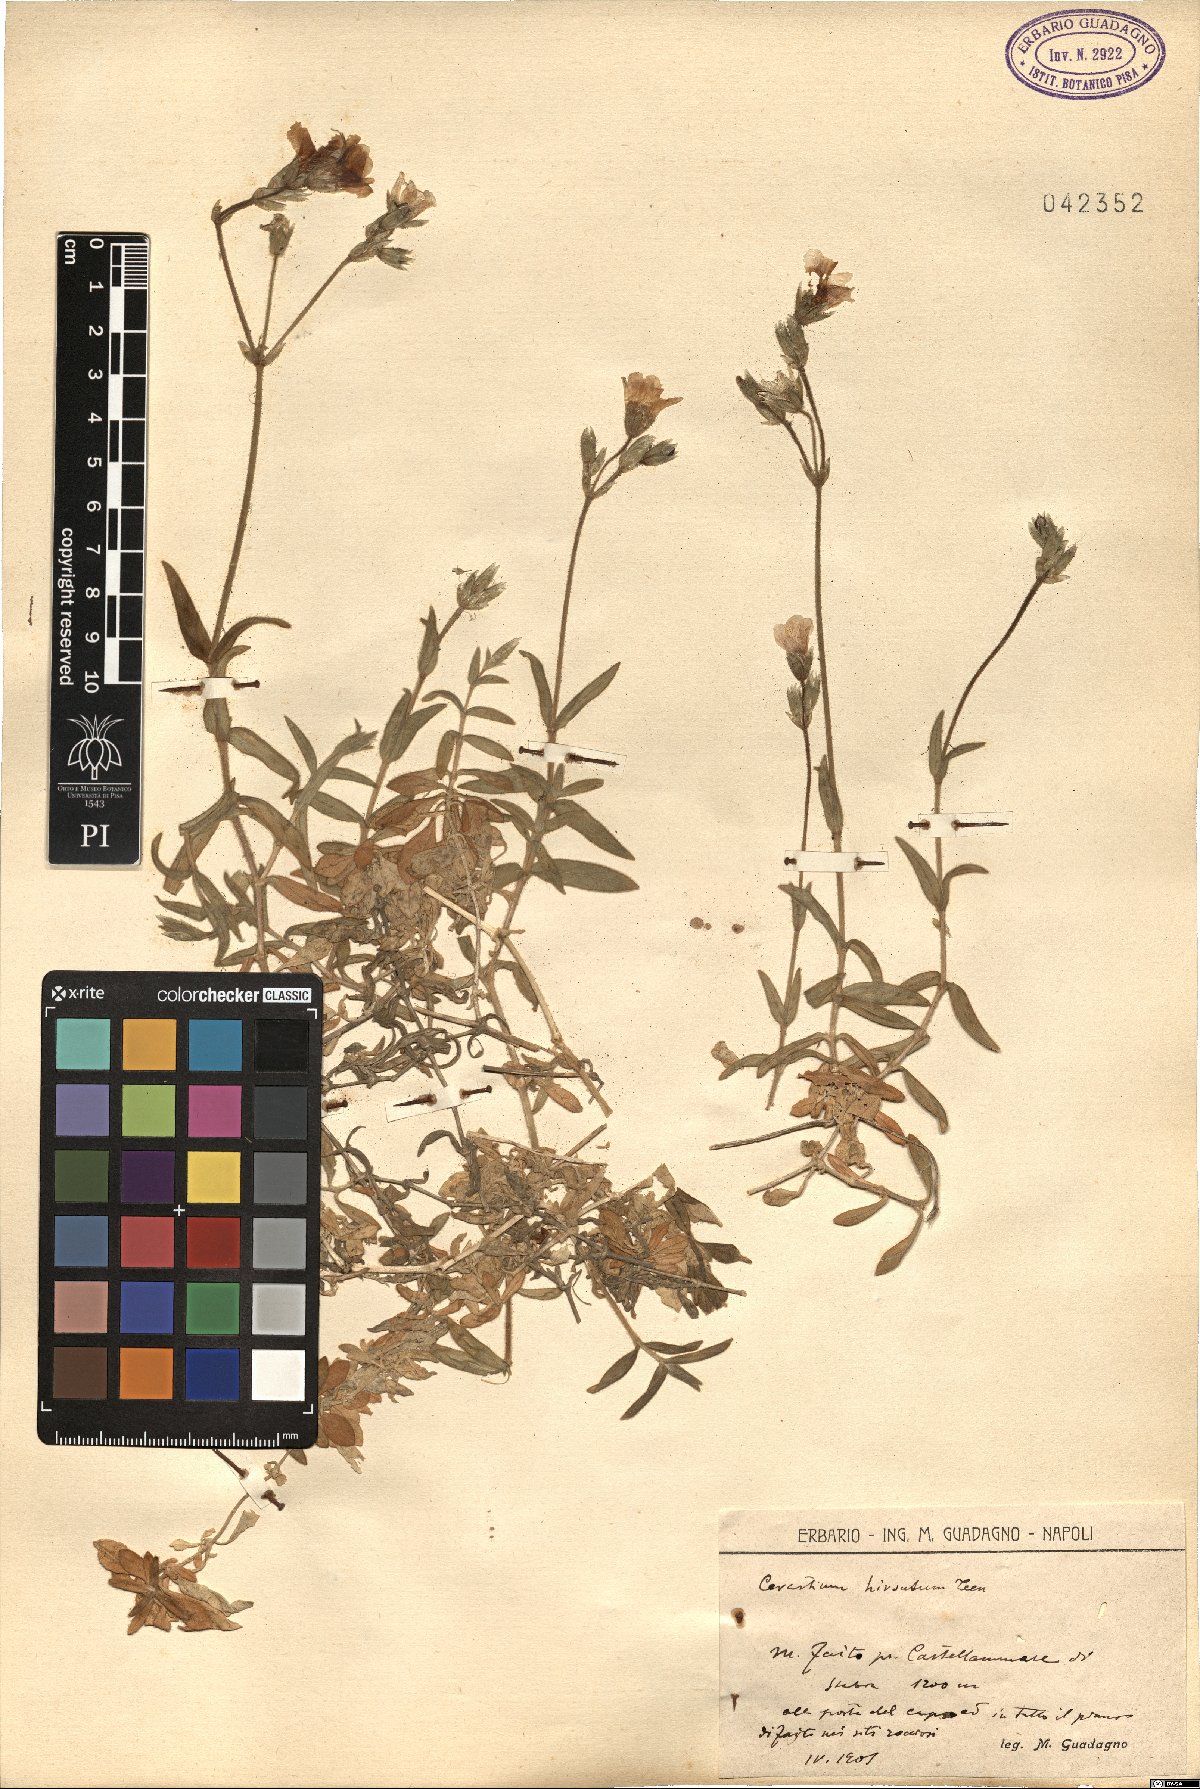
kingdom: Plantae
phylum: Tracheophyta
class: Magnoliopsida
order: Caryophyllales
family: Caryophyllaceae
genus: Cerastium
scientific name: Cerastium scaranii
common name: Italian mouse-ear
